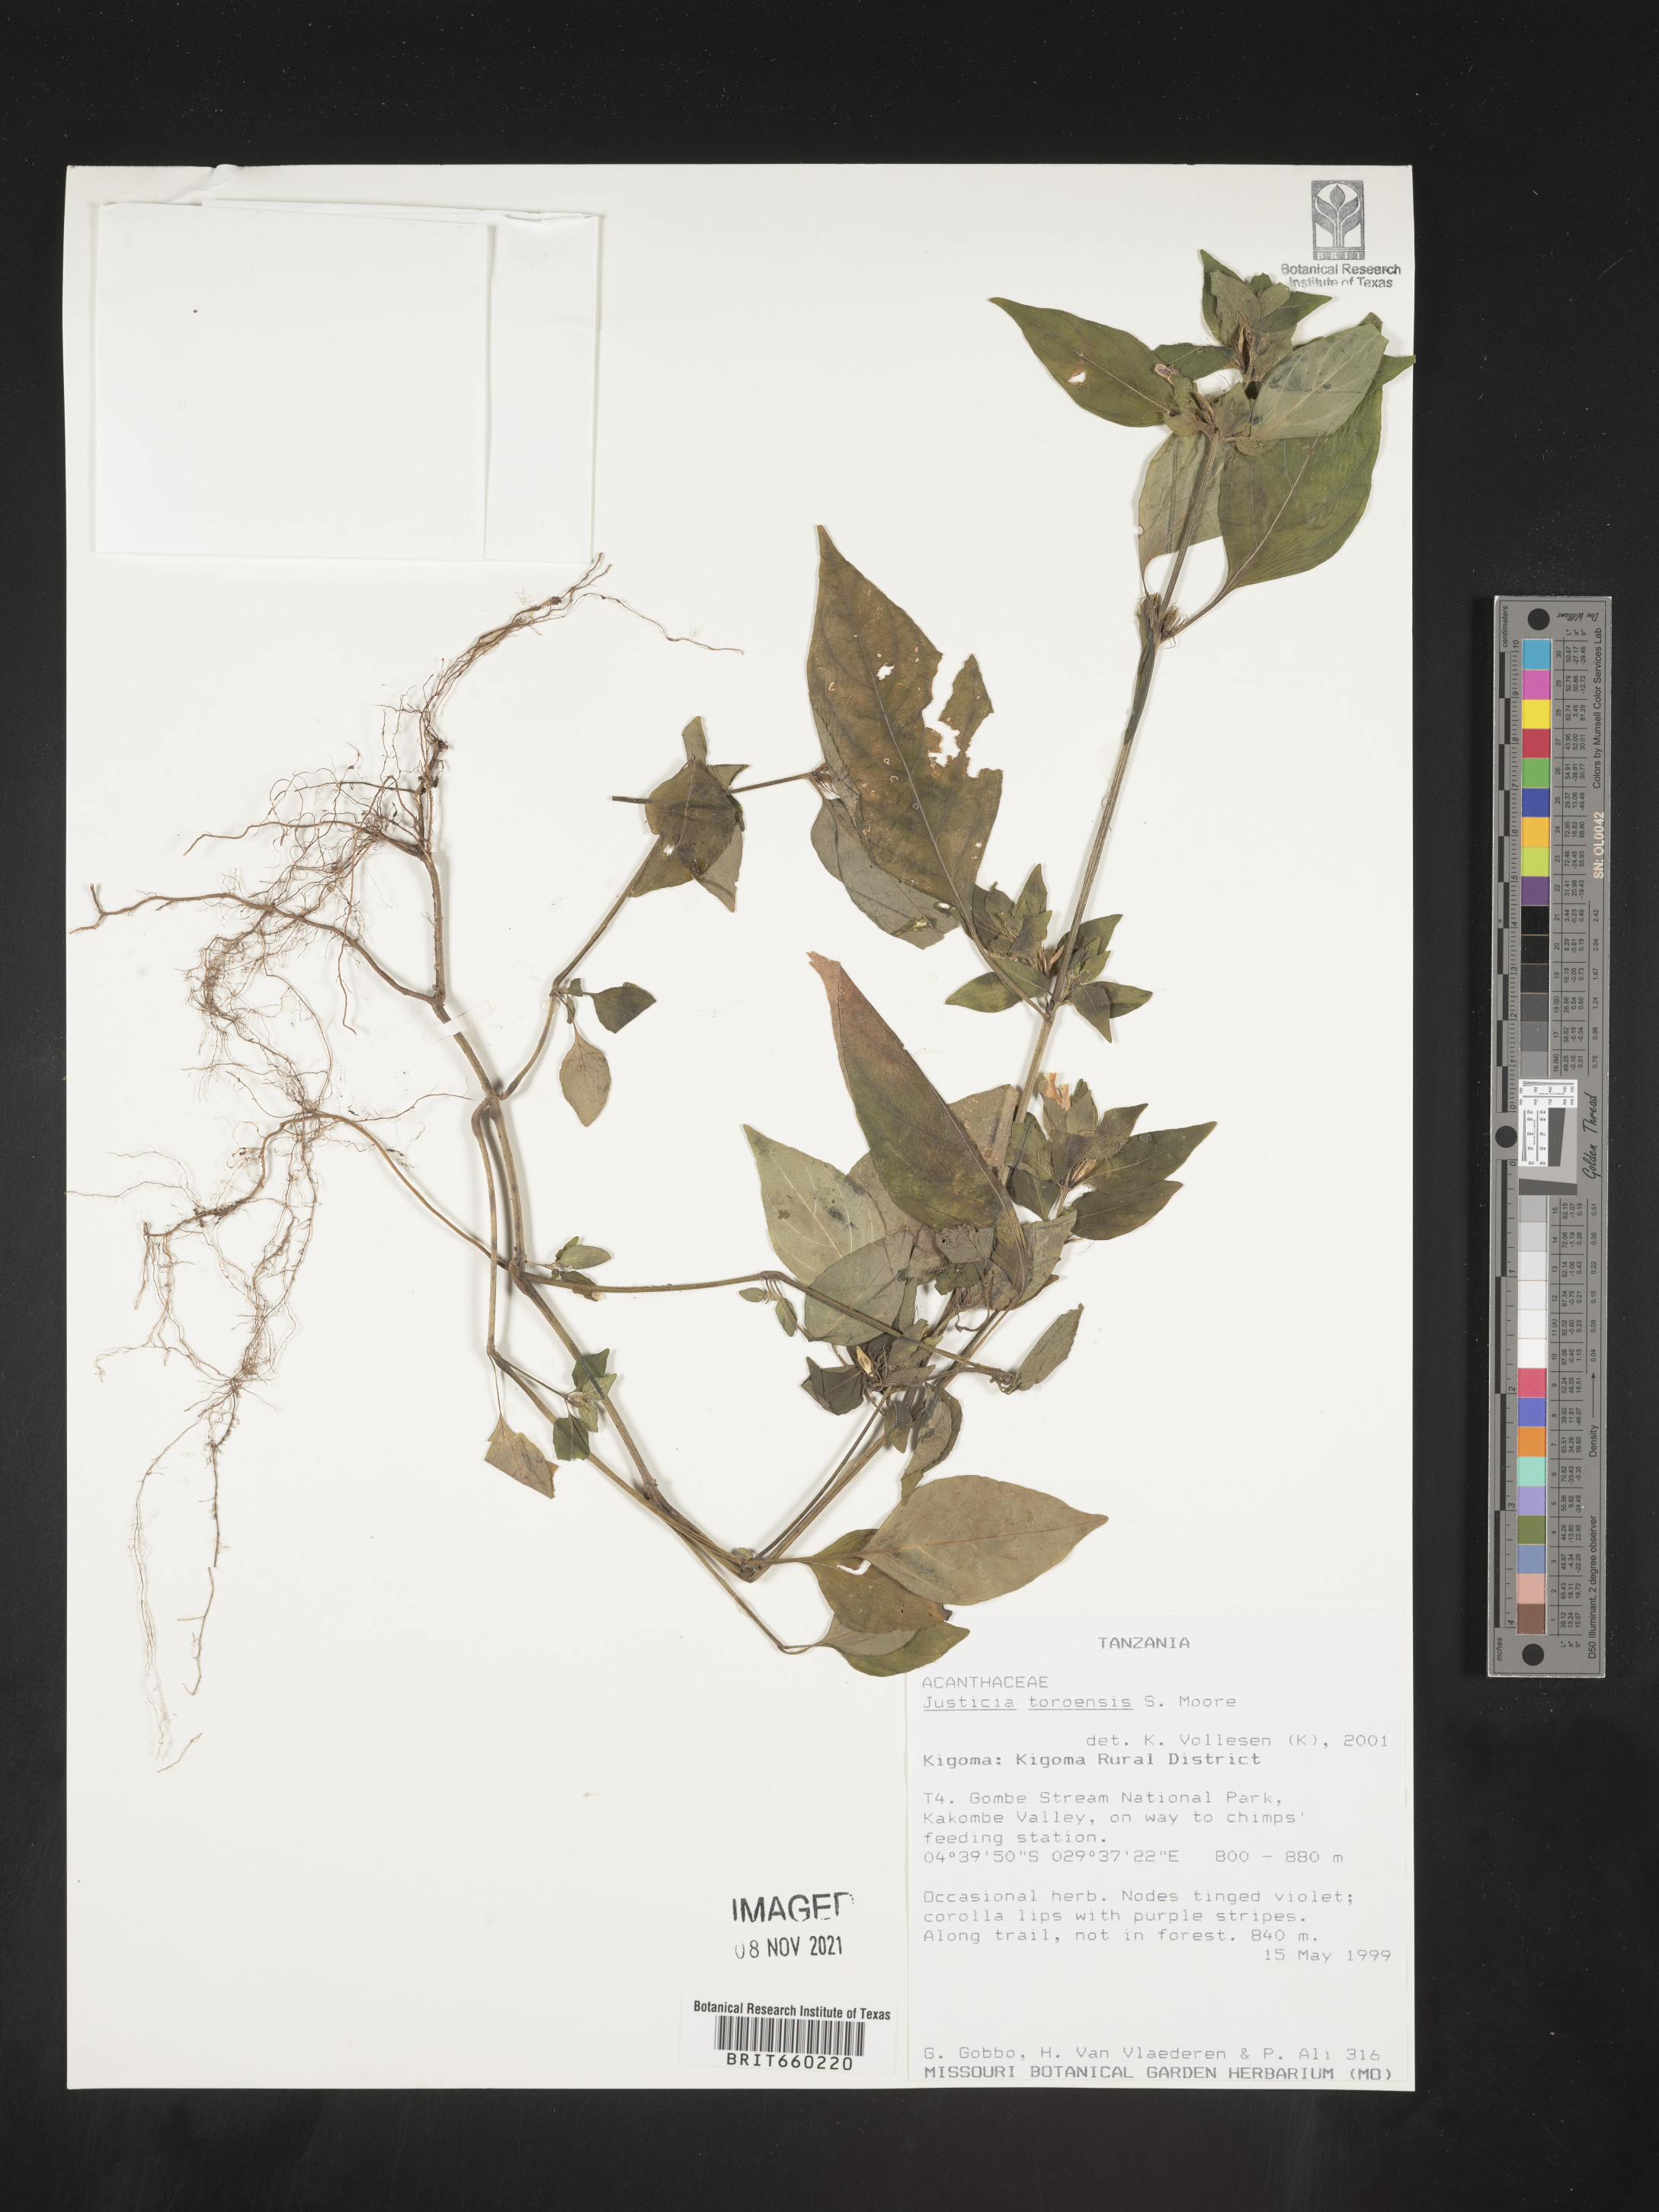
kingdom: Plantae
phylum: Tracheophyta
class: Magnoliopsida
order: Lamiales
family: Acanthaceae
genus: Justicia
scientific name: Justicia
